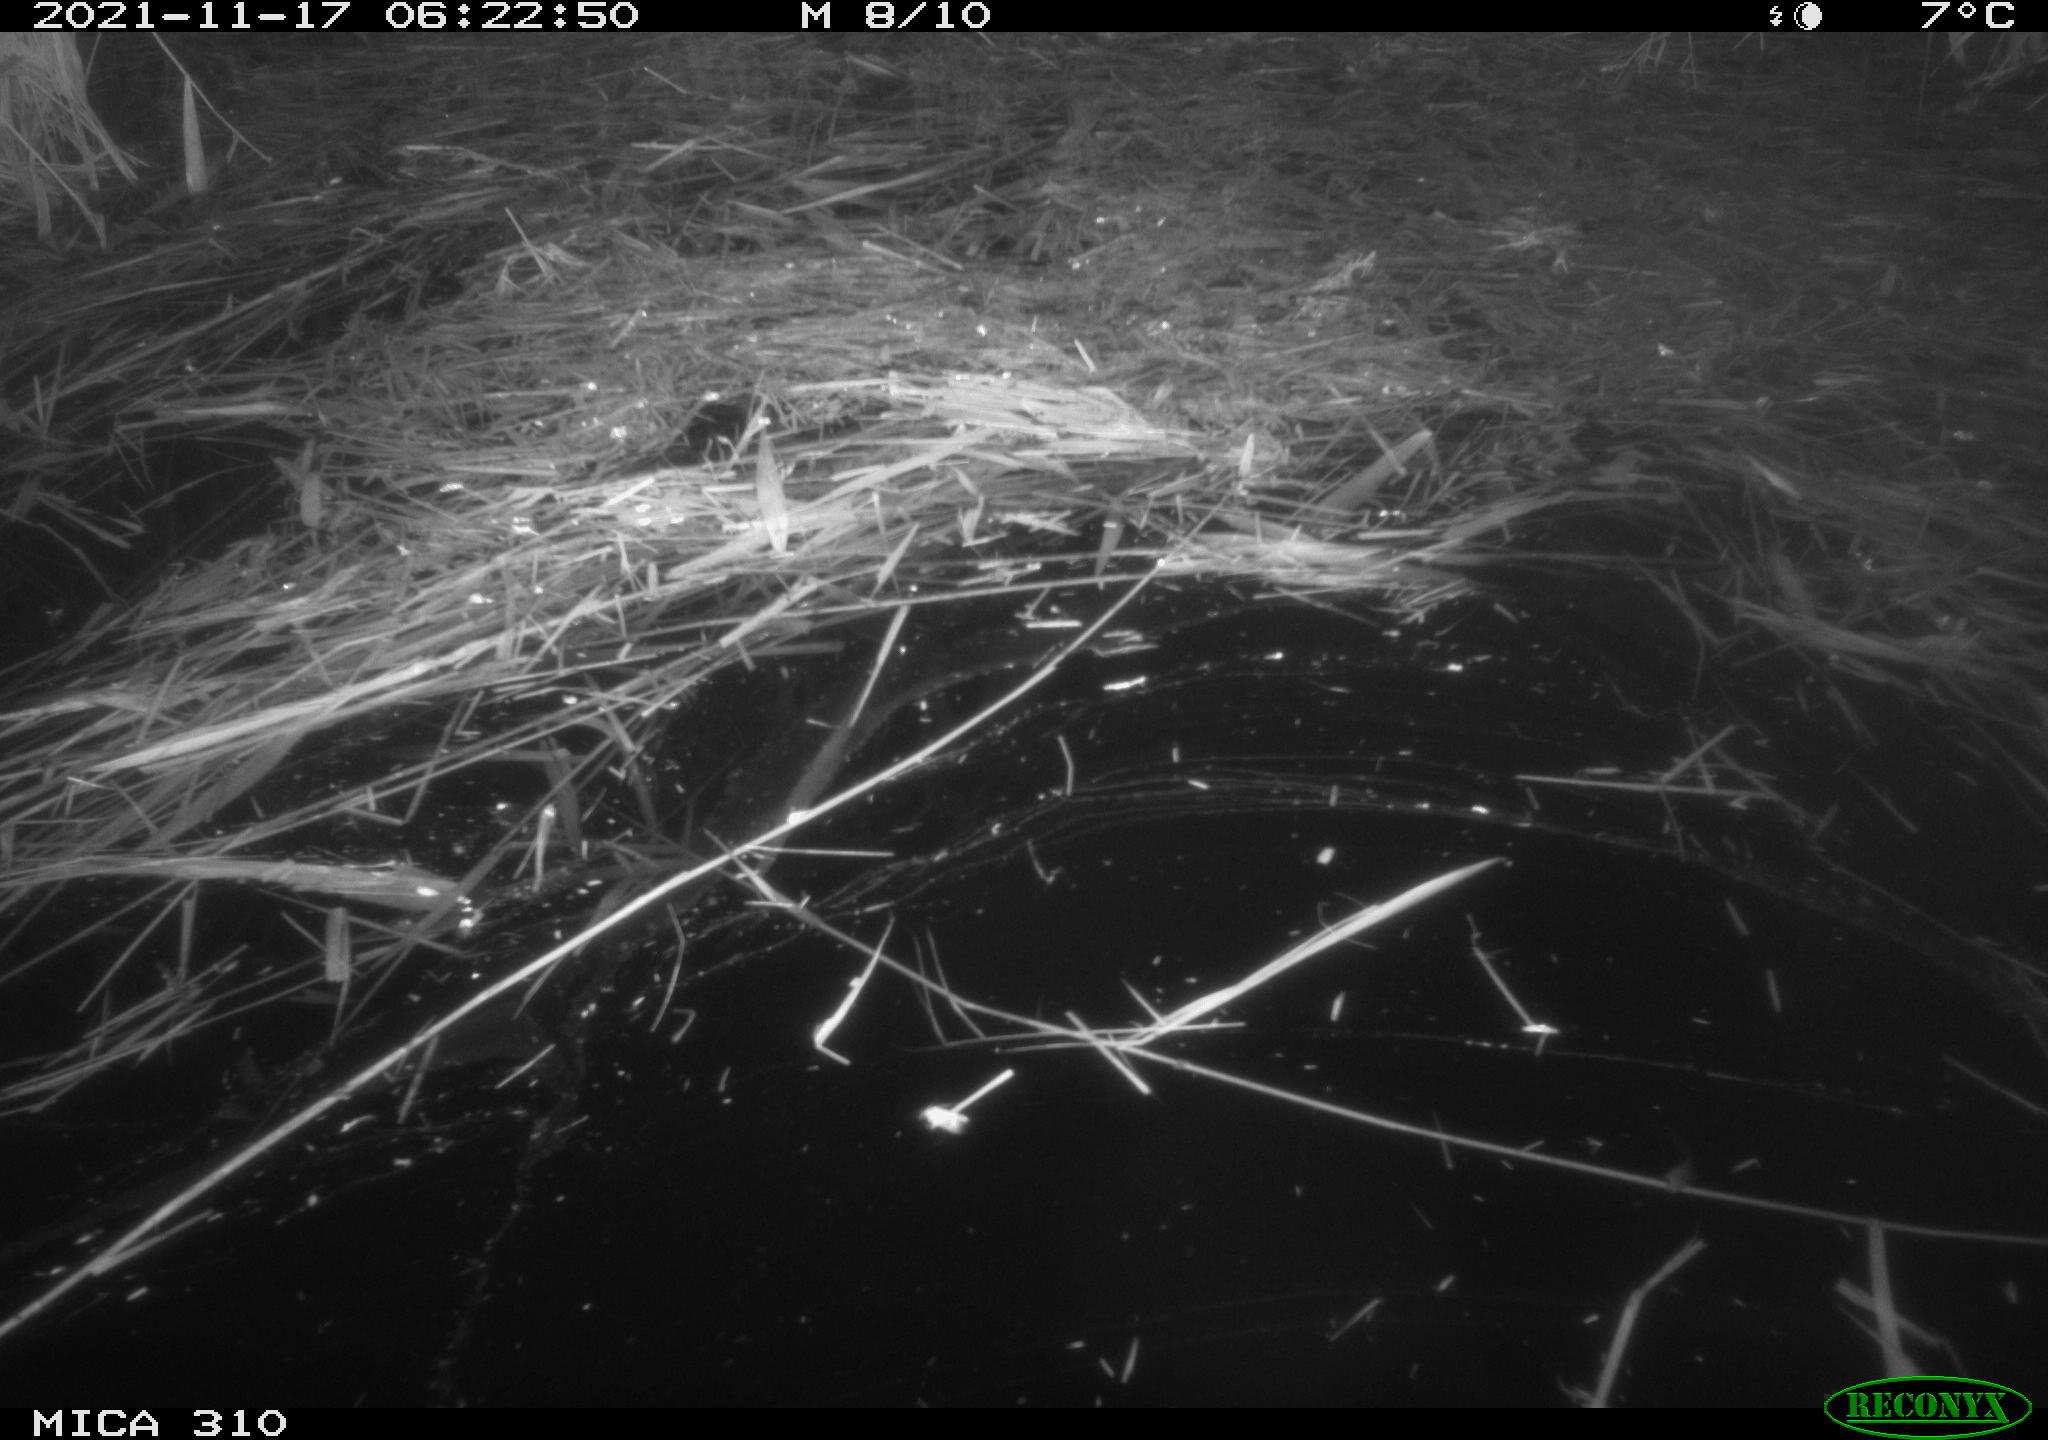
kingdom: Animalia
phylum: Chordata
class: Mammalia
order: Rodentia
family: Muridae
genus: Rattus
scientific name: Rattus norvegicus
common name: Brown rat
